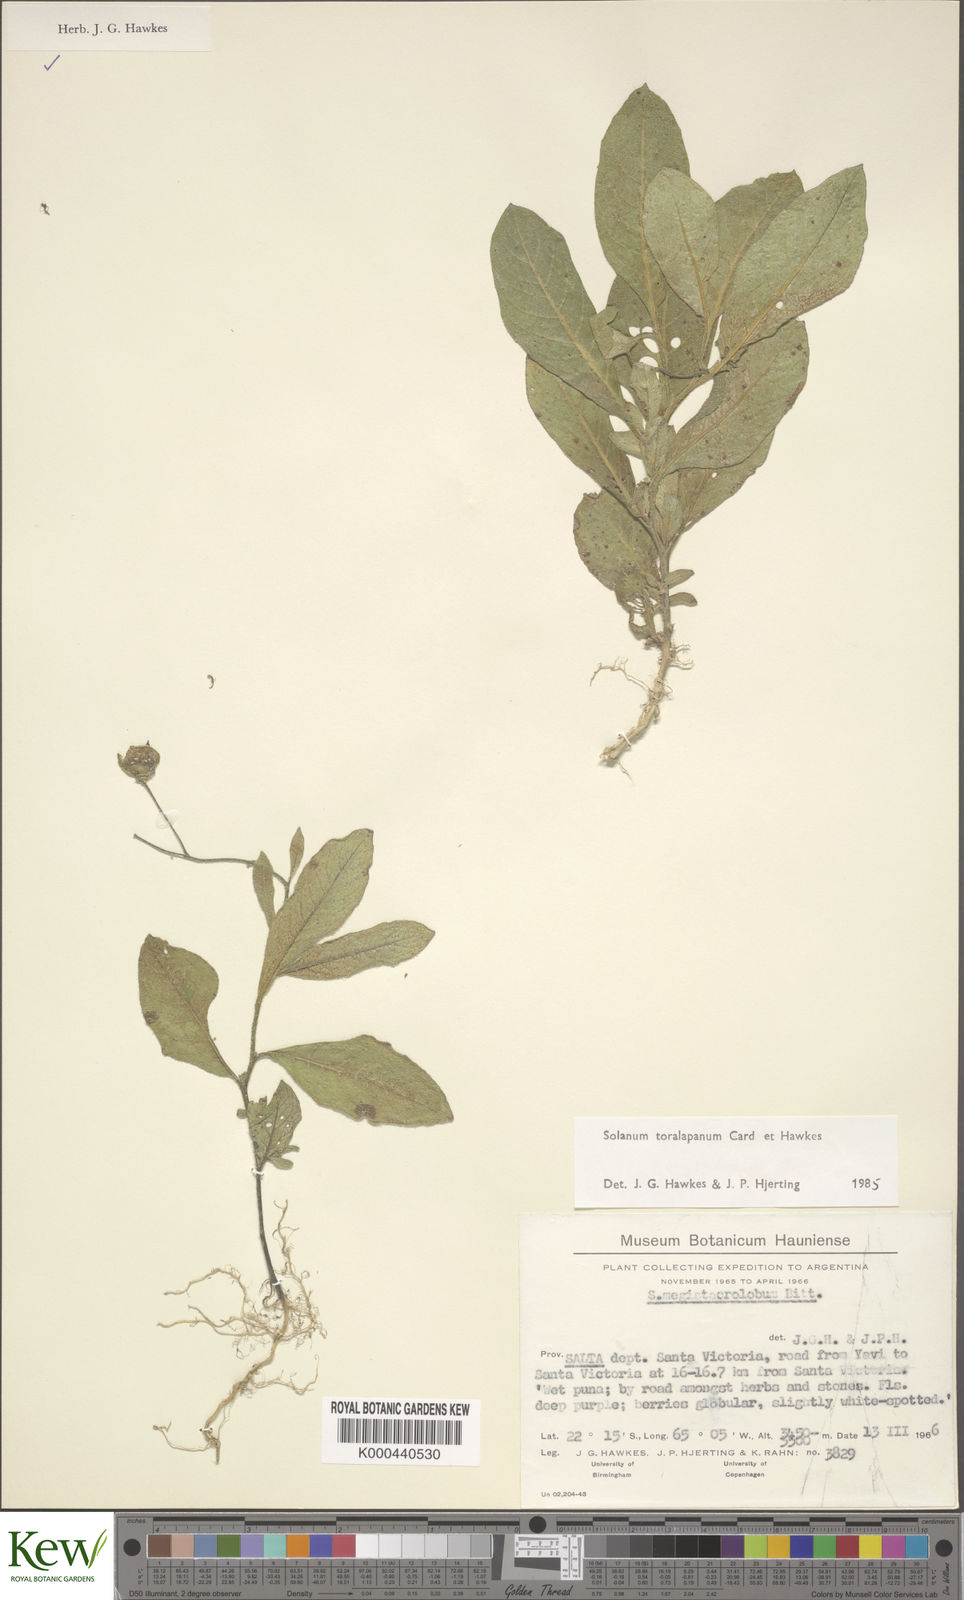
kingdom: Plantae
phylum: Tracheophyta
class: Magnoliopsida
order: Solanales
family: Solanaceae
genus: Solanum
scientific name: Solanum
